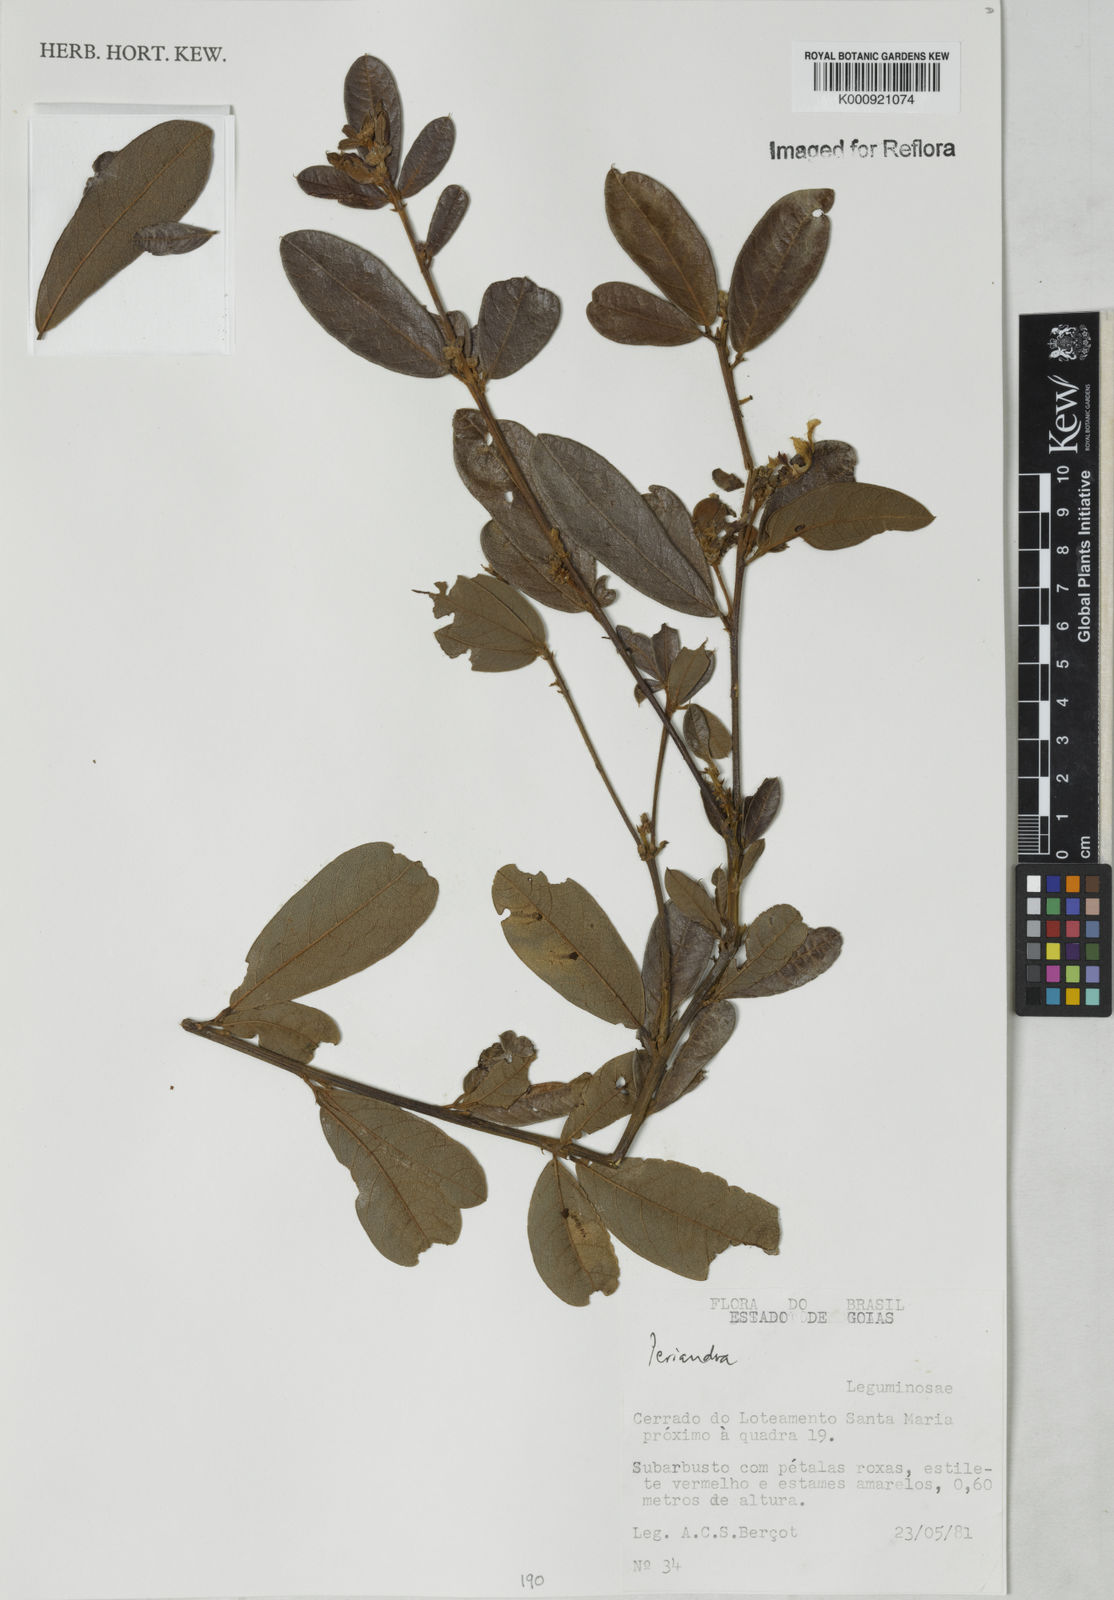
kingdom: Plantae
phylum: Tracheophyta
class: Magnoliopsida
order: Fabales
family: Fabaceae
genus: Periandra
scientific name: Periandra
